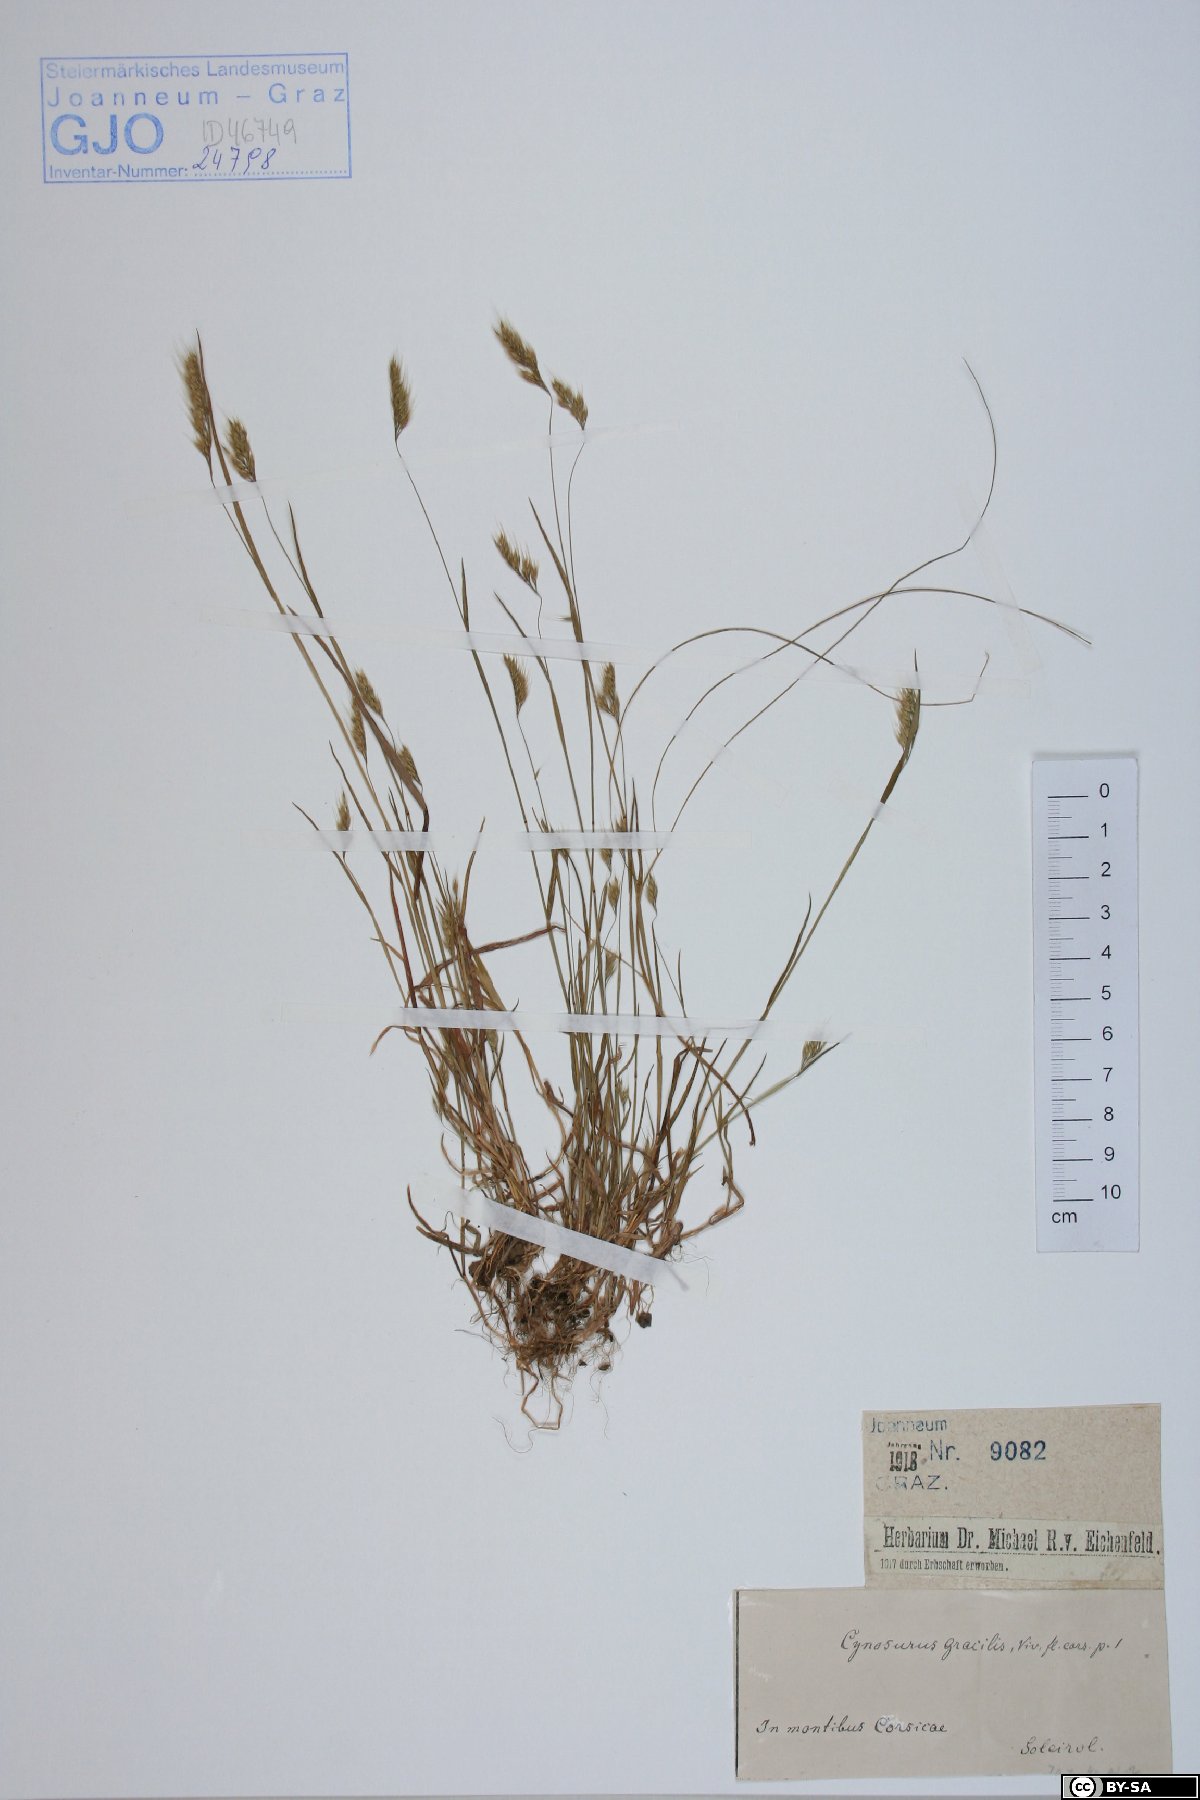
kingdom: Plantae
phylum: Tracheophyta
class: Liliopsida
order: Poales
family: Poaceae
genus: Cynosurus
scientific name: Cynosurus effusus
